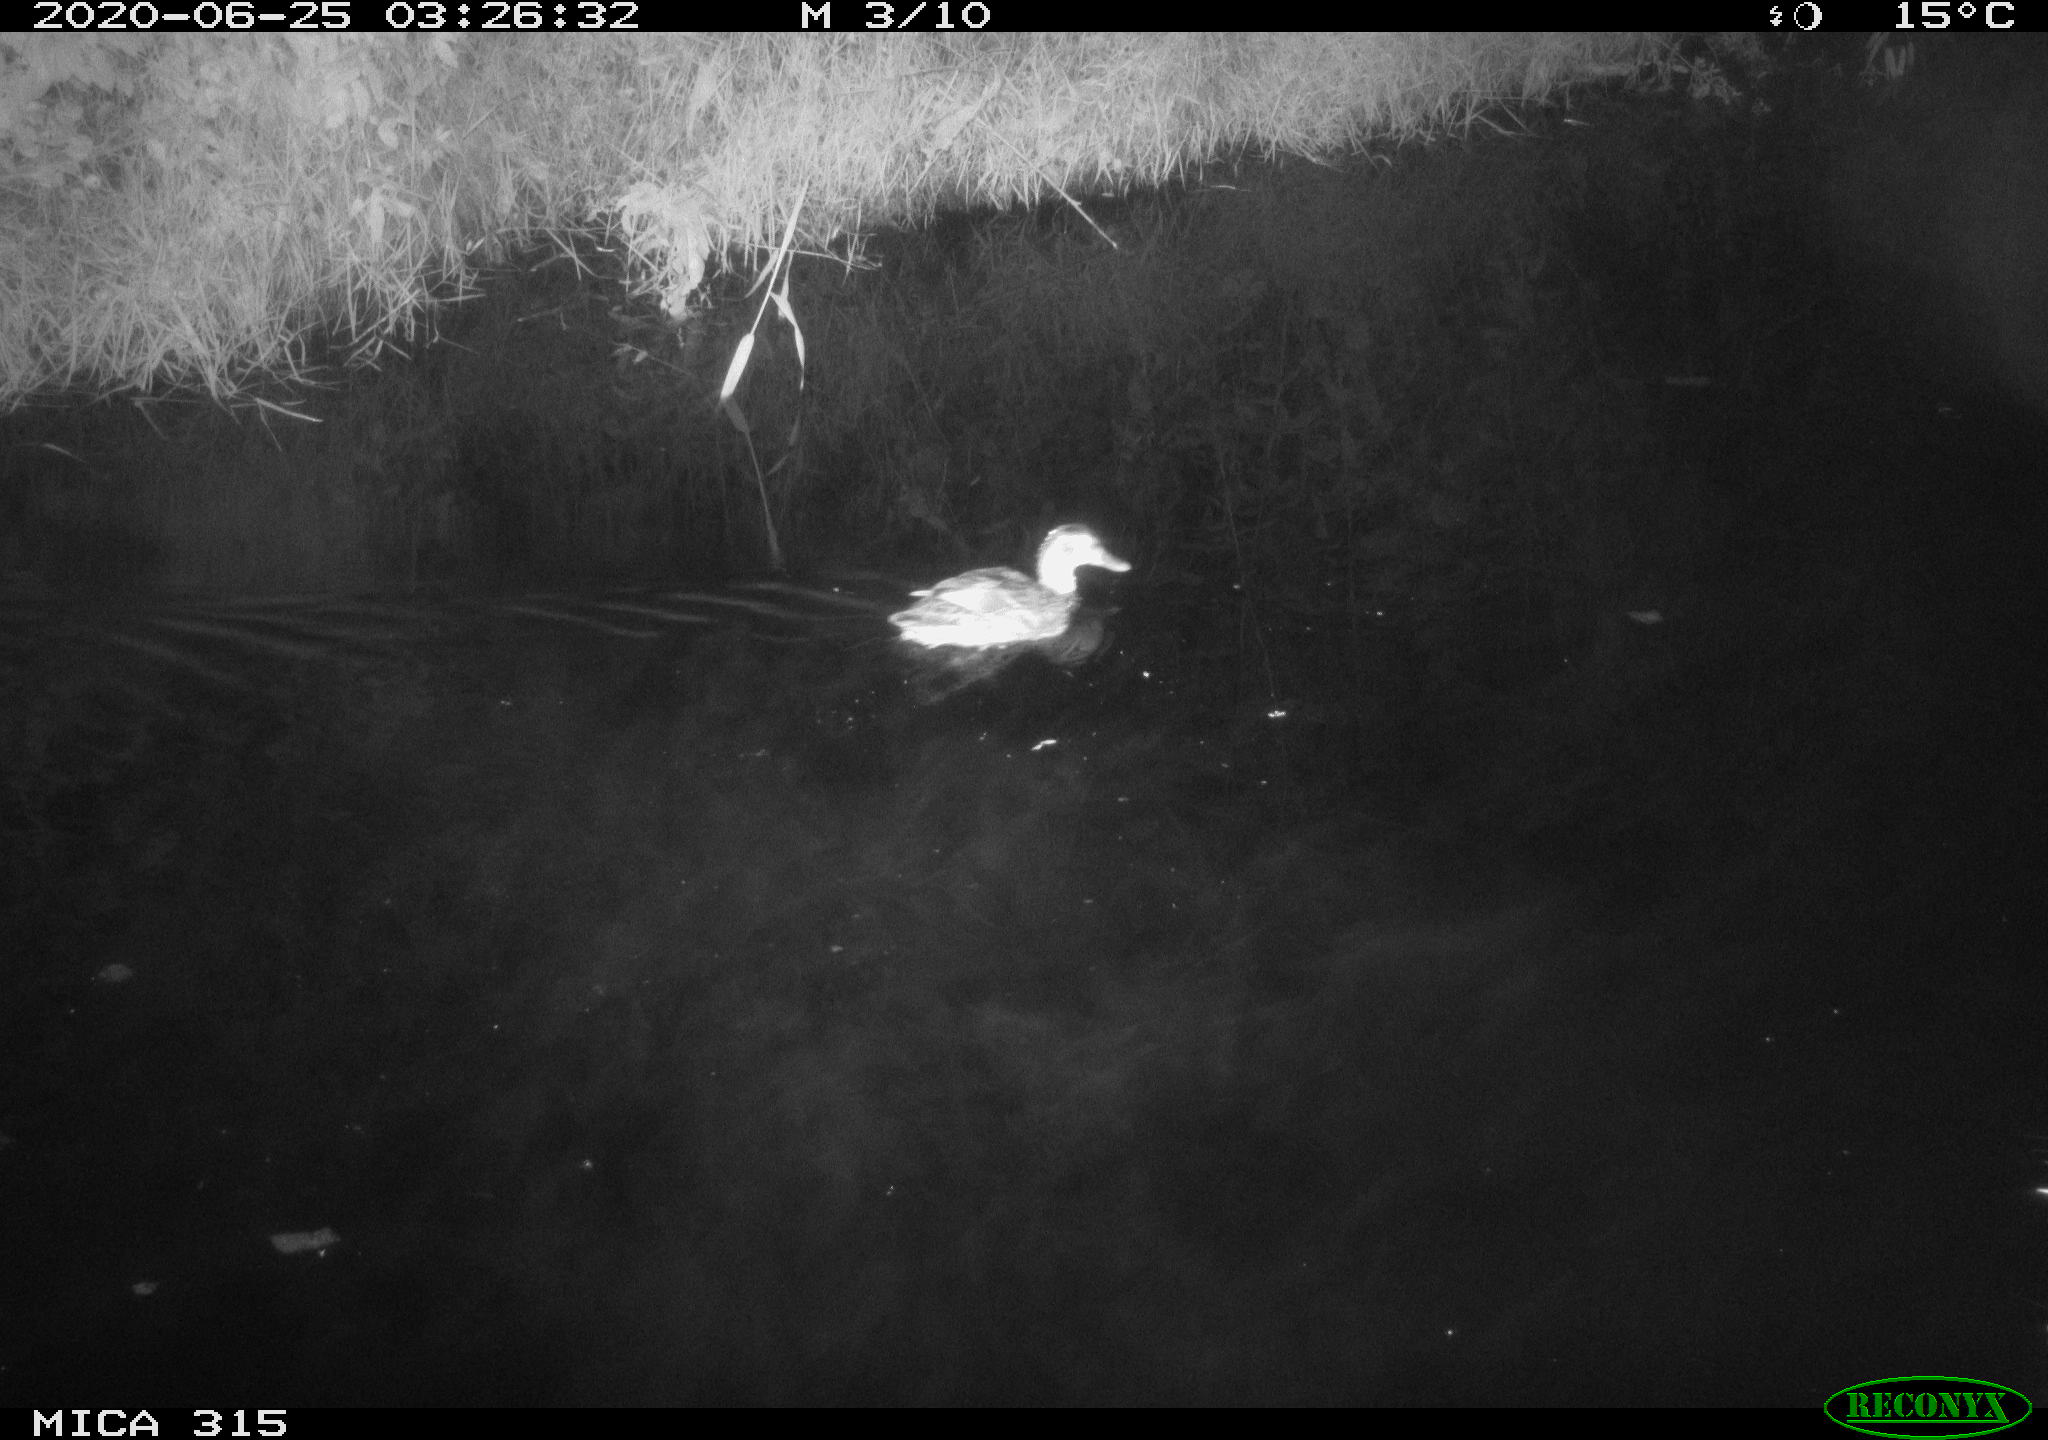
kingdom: Animalia
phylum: Chordata
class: Aves
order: Anseriformes
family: Anatidae
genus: Anas
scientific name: Anas platyrhynchos
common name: Mallard
